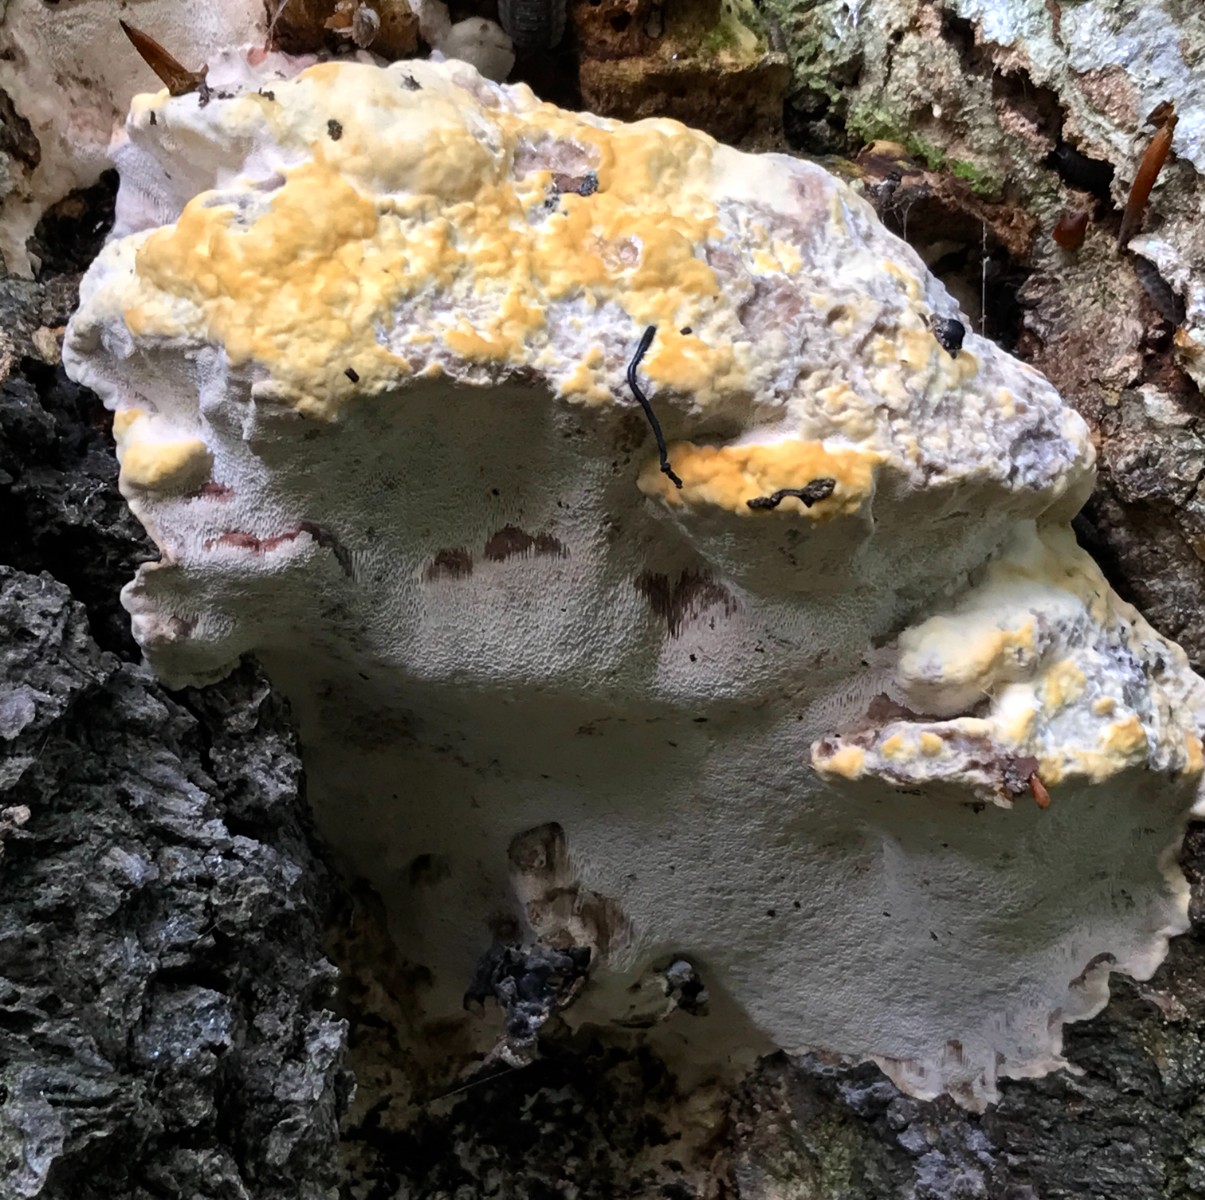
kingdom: Fungi
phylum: Basidiomycota
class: Agaricomycetes
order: Polyporales
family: Polyporaceae
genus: Vanderbylia
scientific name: Vanderbylia fraxinea
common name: stor kanelporesvamp
